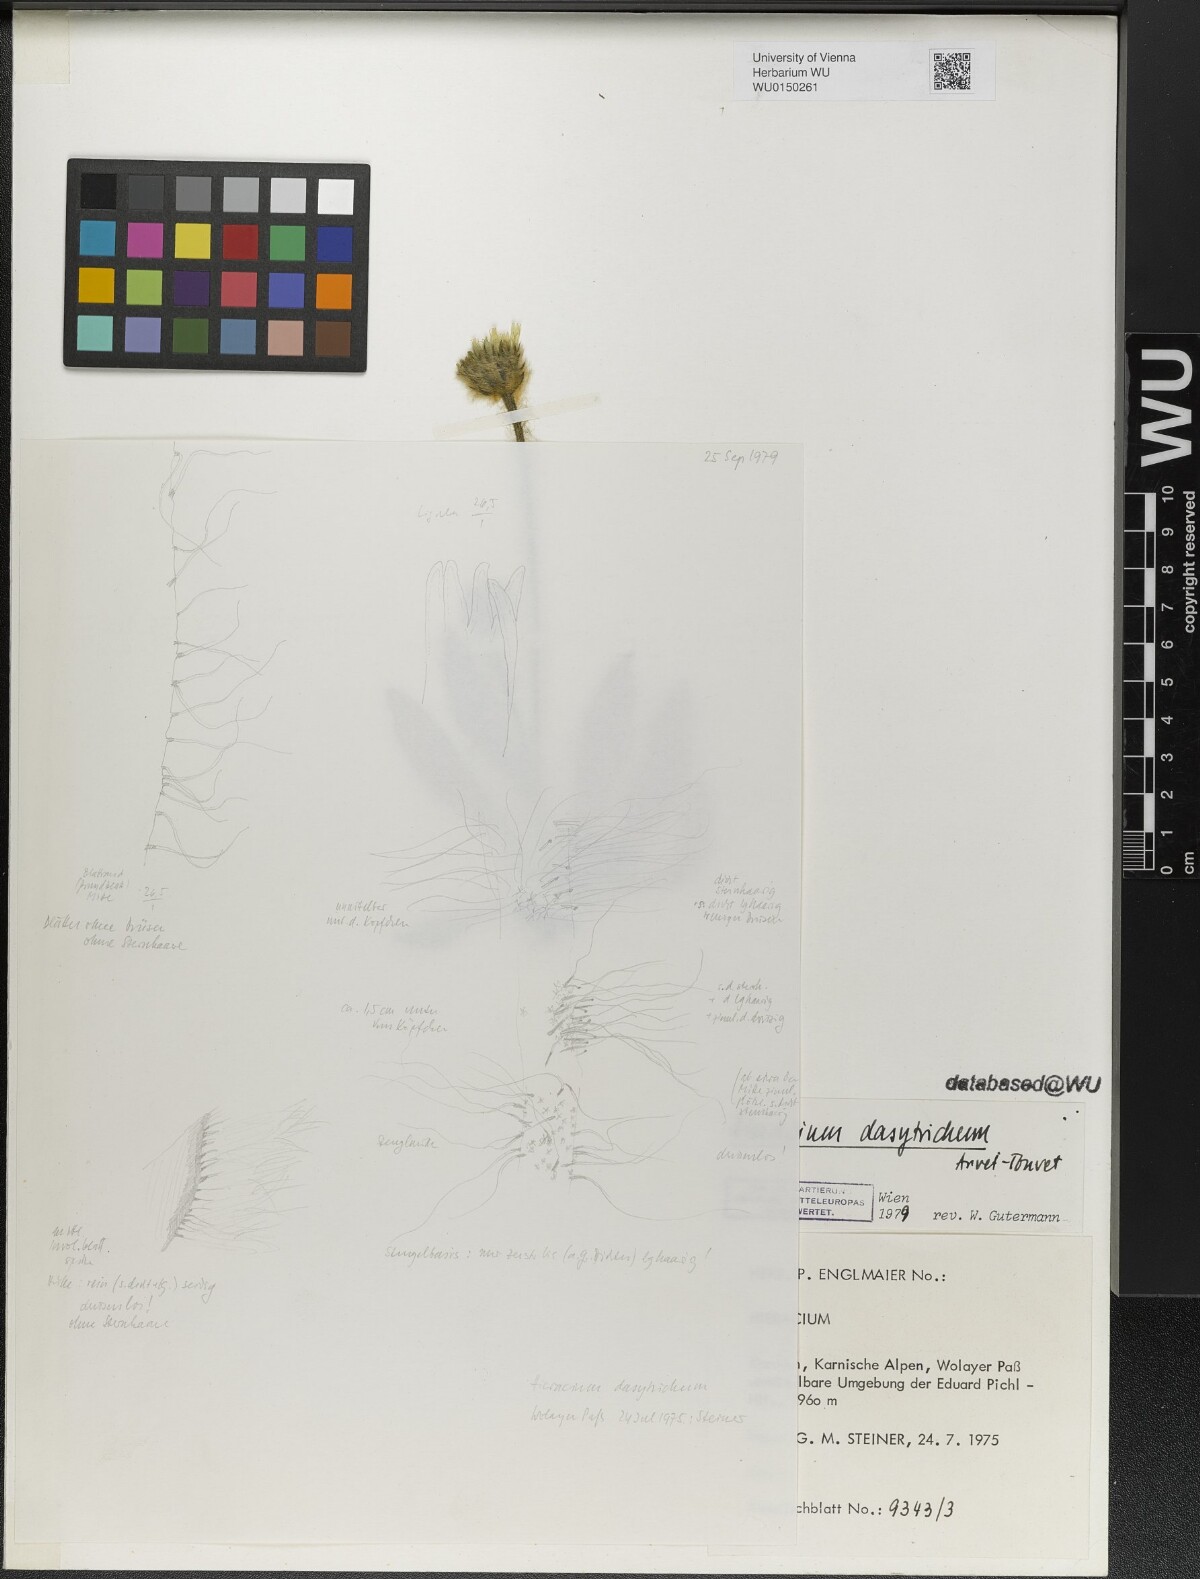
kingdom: Plantae
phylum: Tracheophyta
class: Magnoliopsida
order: Asterales
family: Asteraceae
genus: Hieracium
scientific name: Hieracium dasytrichum
